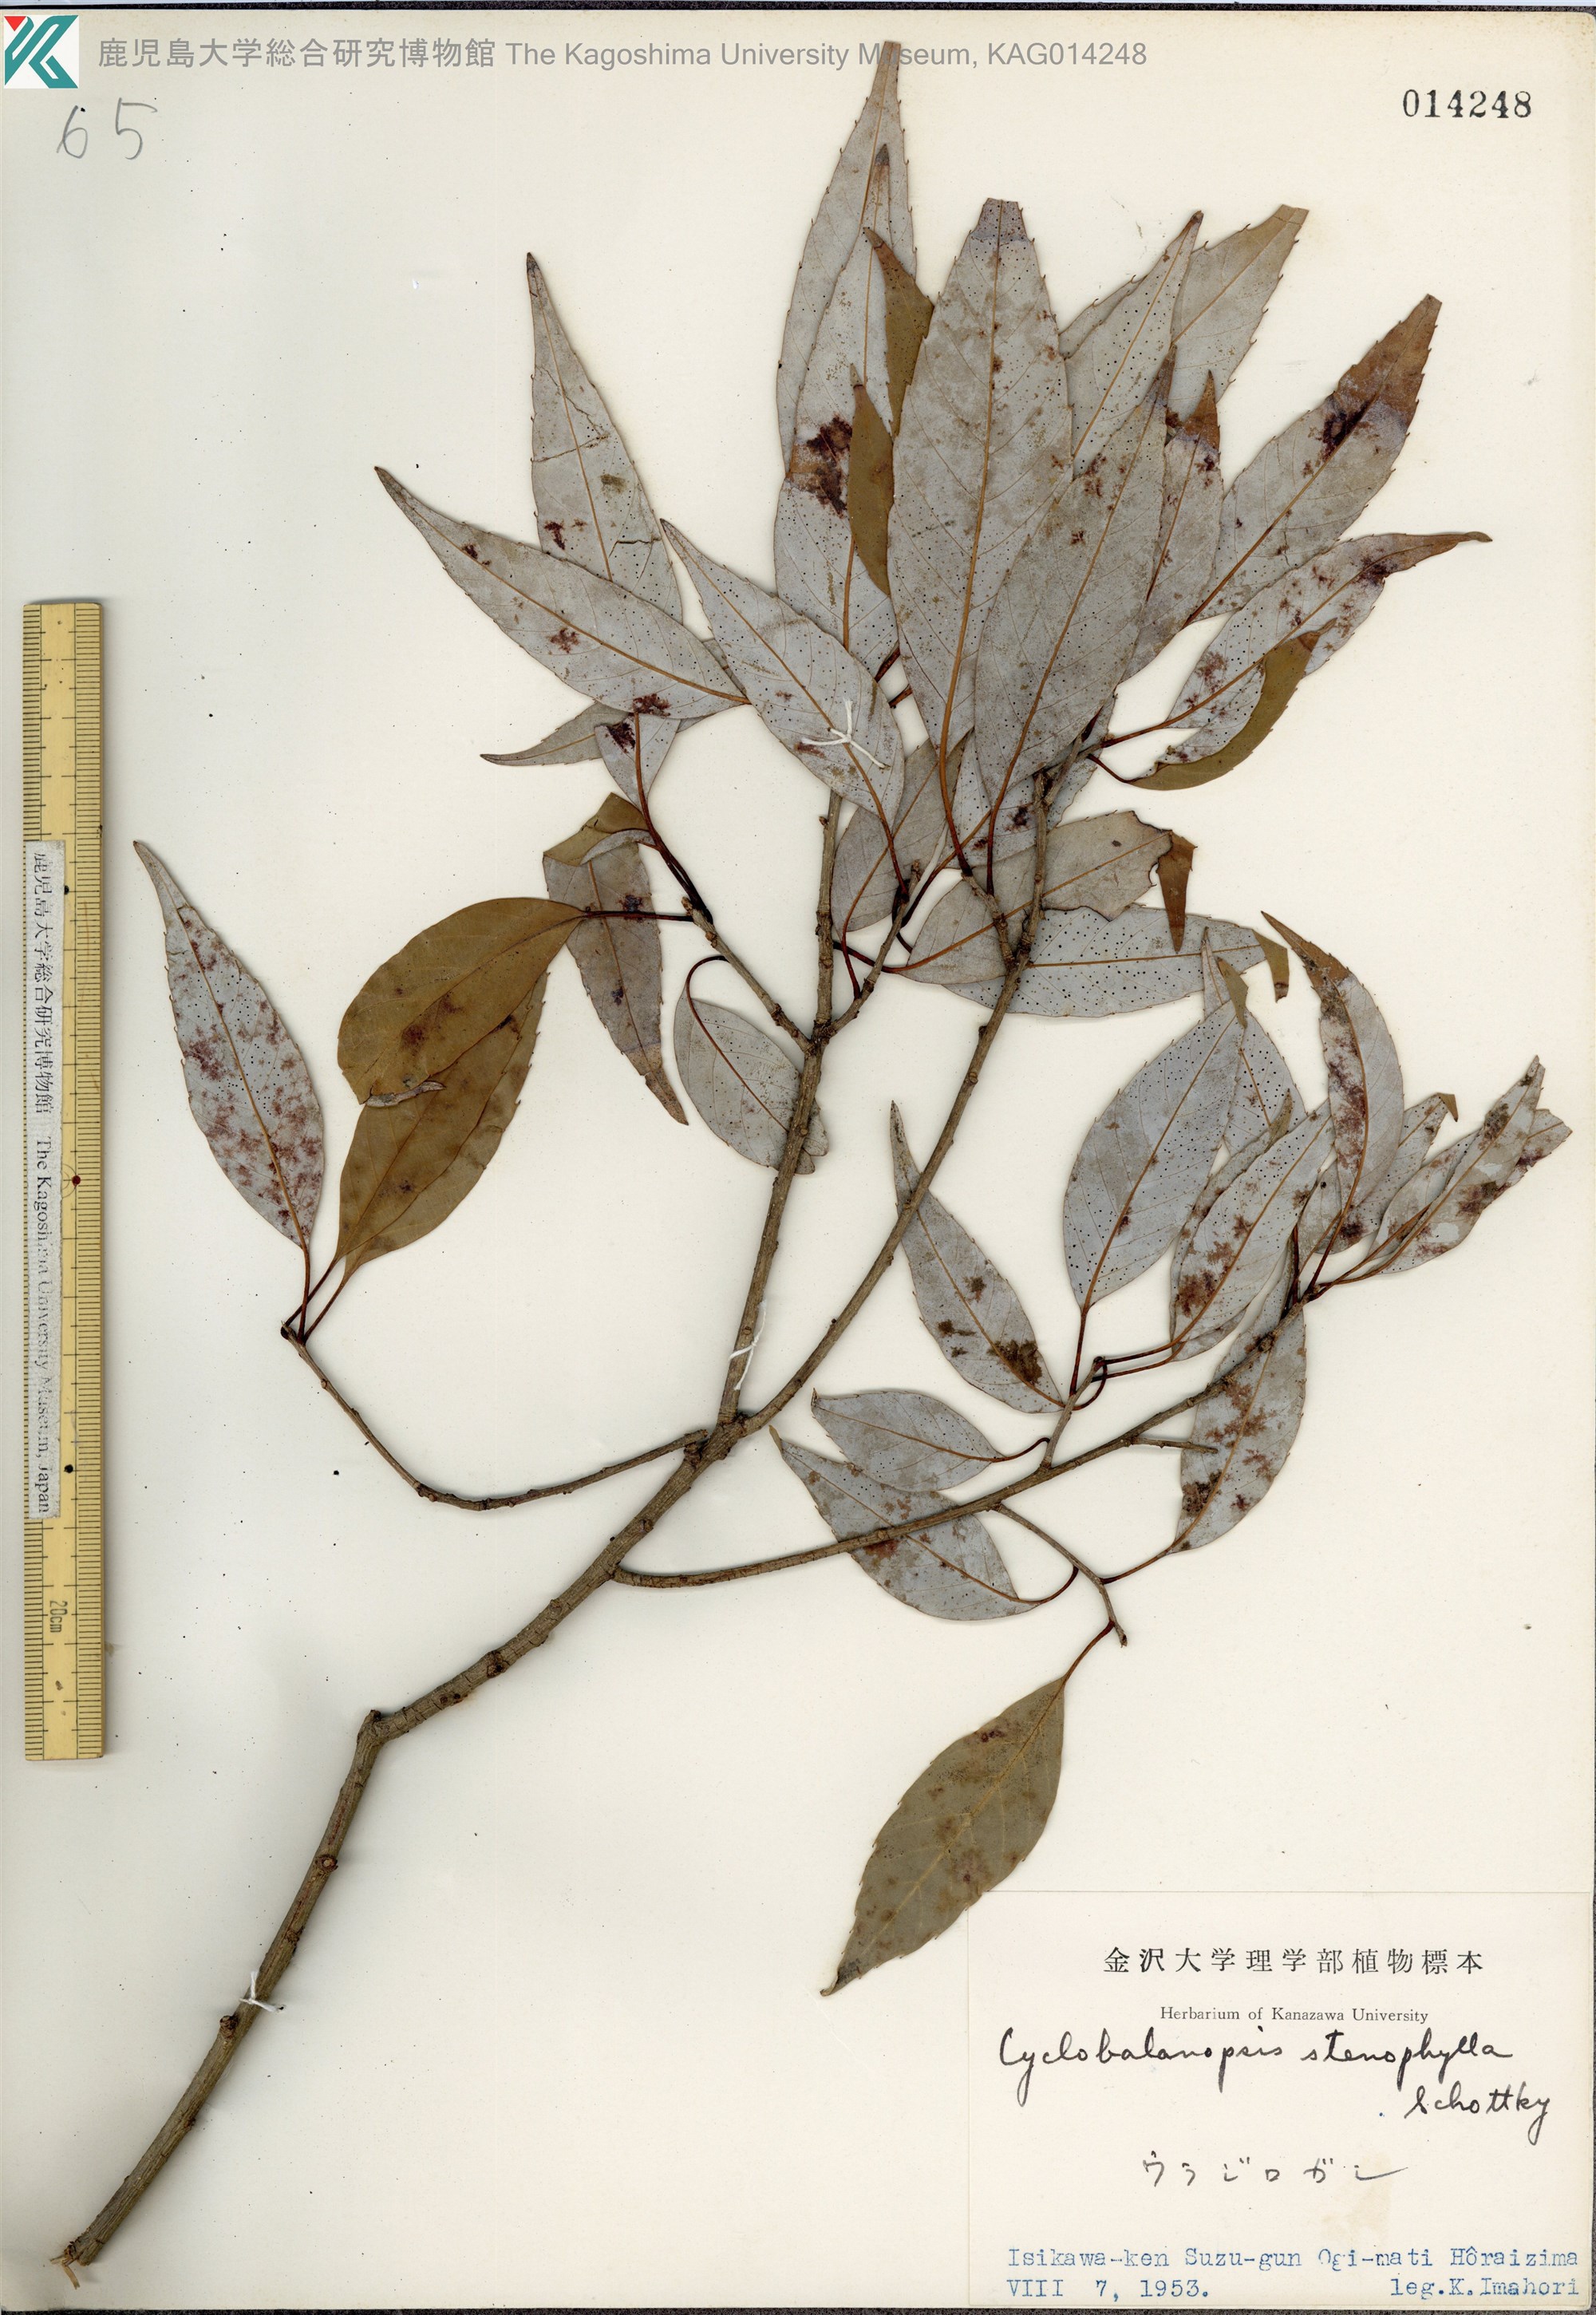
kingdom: Plantae
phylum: Tracheophyta
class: Magnoliopsida
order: Fagales
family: Fagaceae
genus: Quercus
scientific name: Quercus salicina
